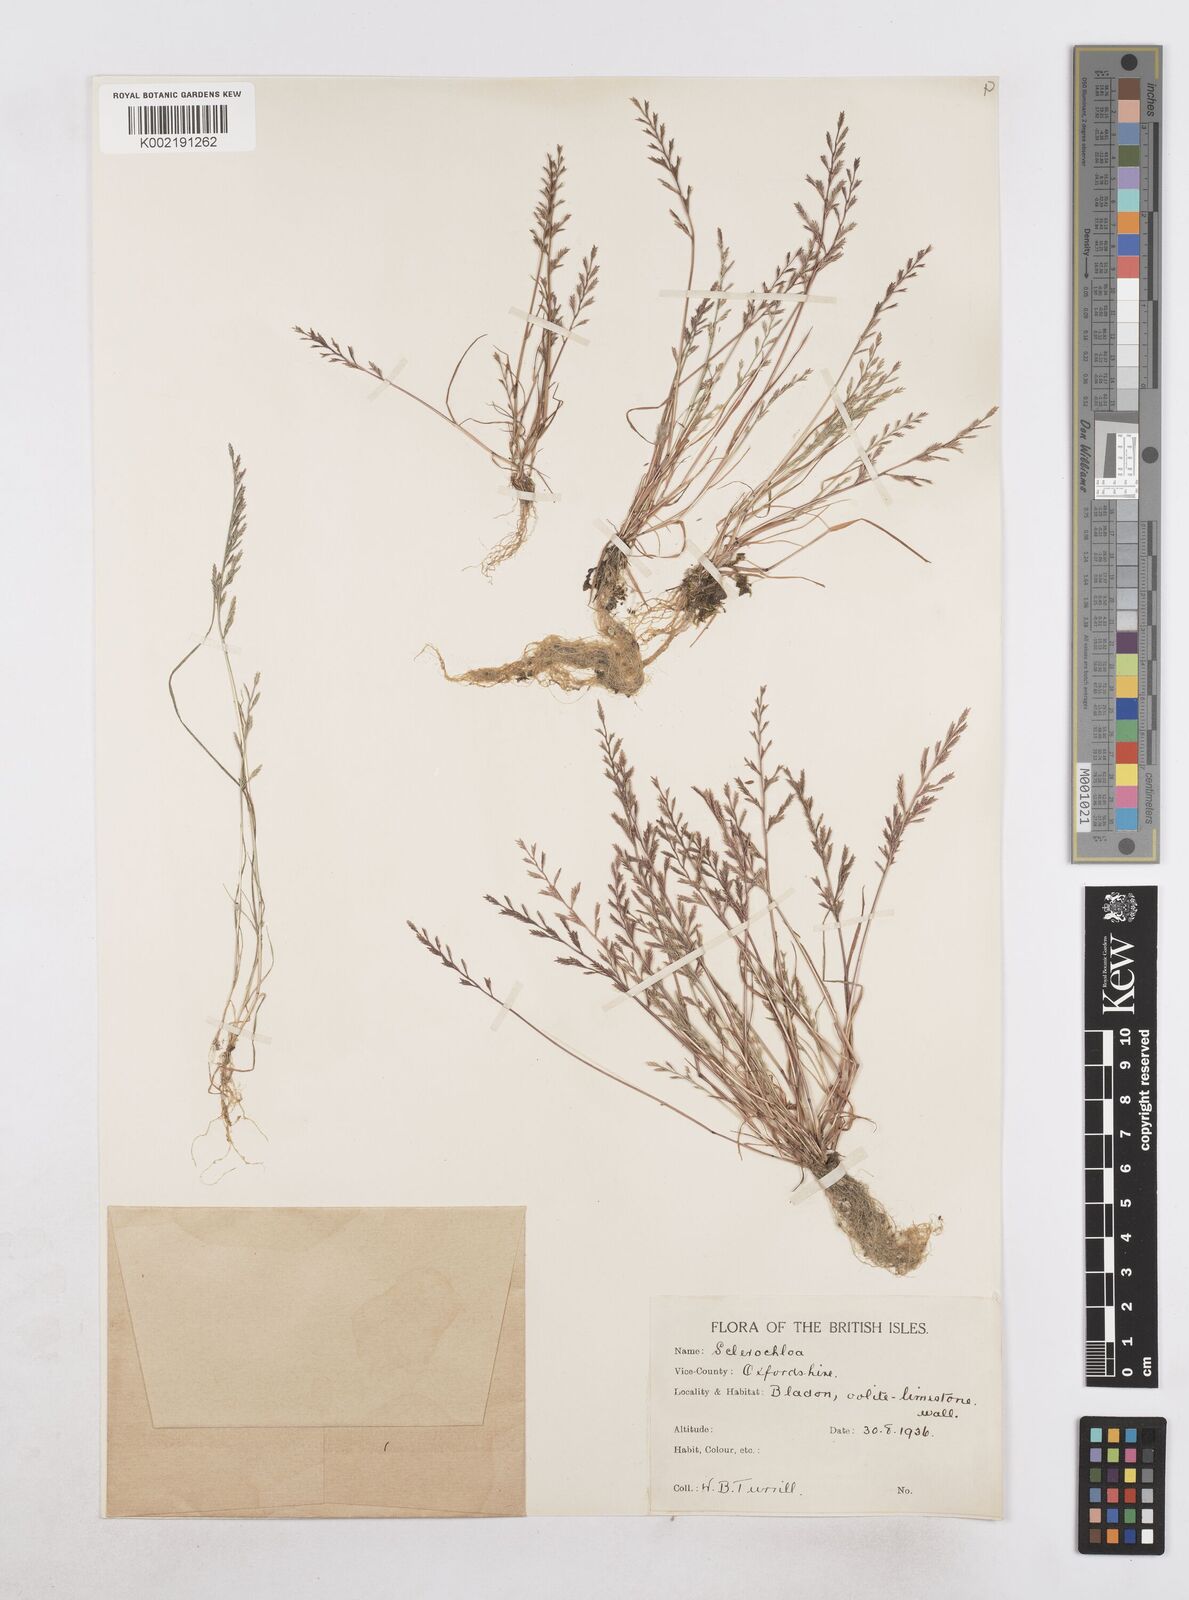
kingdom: Plantae
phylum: Tracheophyta
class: Liliopsida
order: Poales
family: Poaceae
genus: Catapodium
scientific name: Catapodium rigidum
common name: Fern-grass
